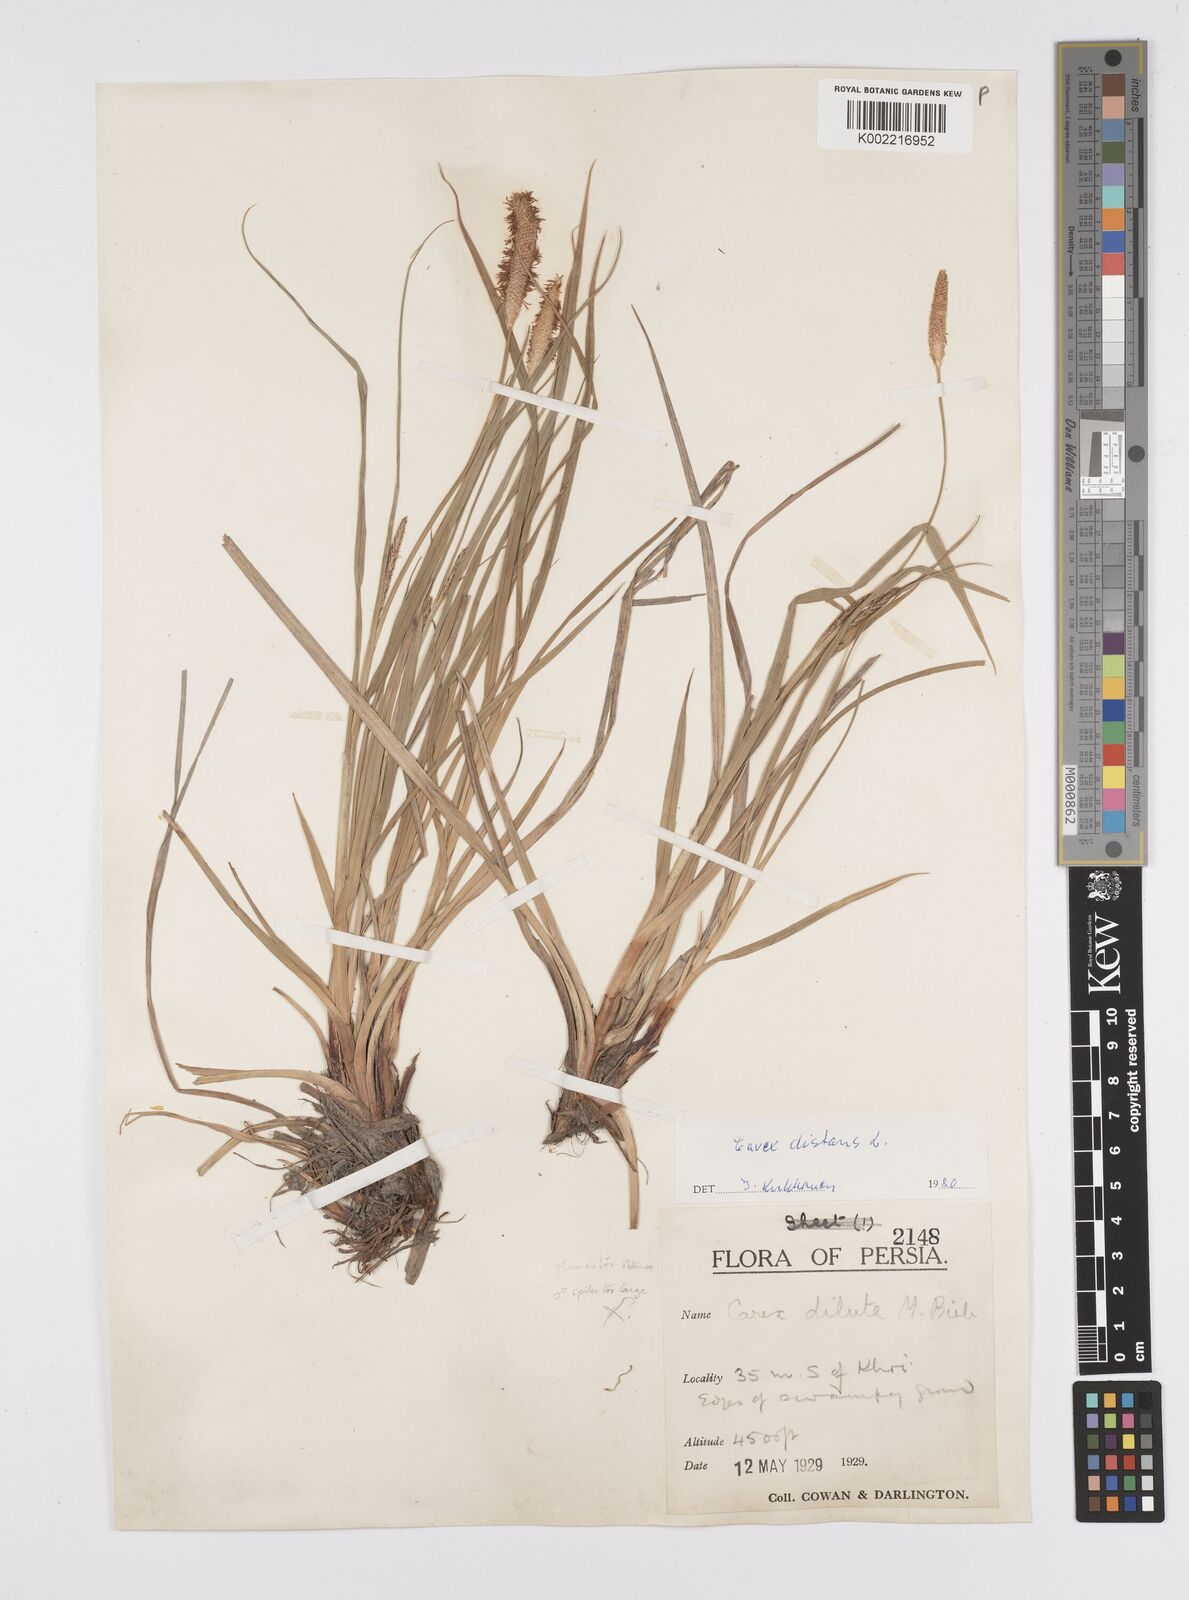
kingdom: Plantae
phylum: Tracheophyta
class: Liliopsida
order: Poales
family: Cyperaceae
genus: Carex
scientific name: Carex distans
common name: Distant sedge
